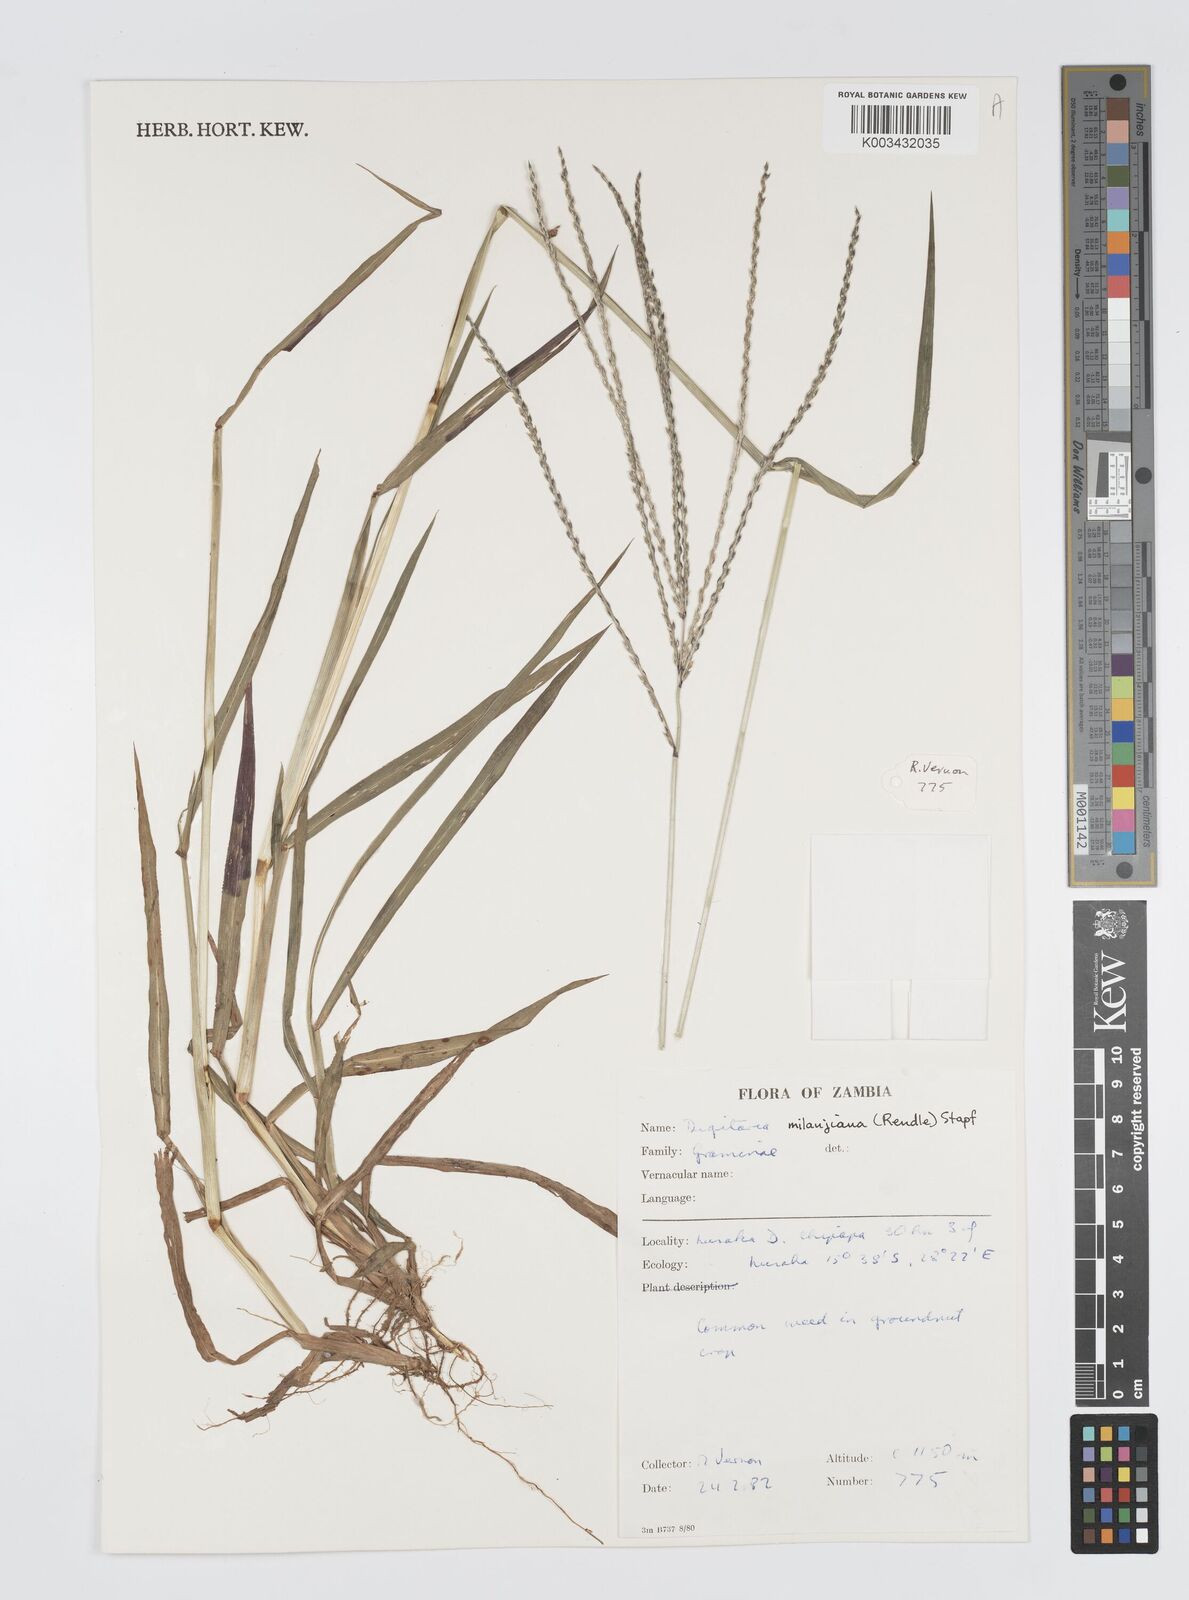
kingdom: Plantae
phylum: Tracheophyta
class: Liliopsida
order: Poales
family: Poaceae
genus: Digitaria
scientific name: Digitaria milanjiana
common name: Madagascar crabgrass
